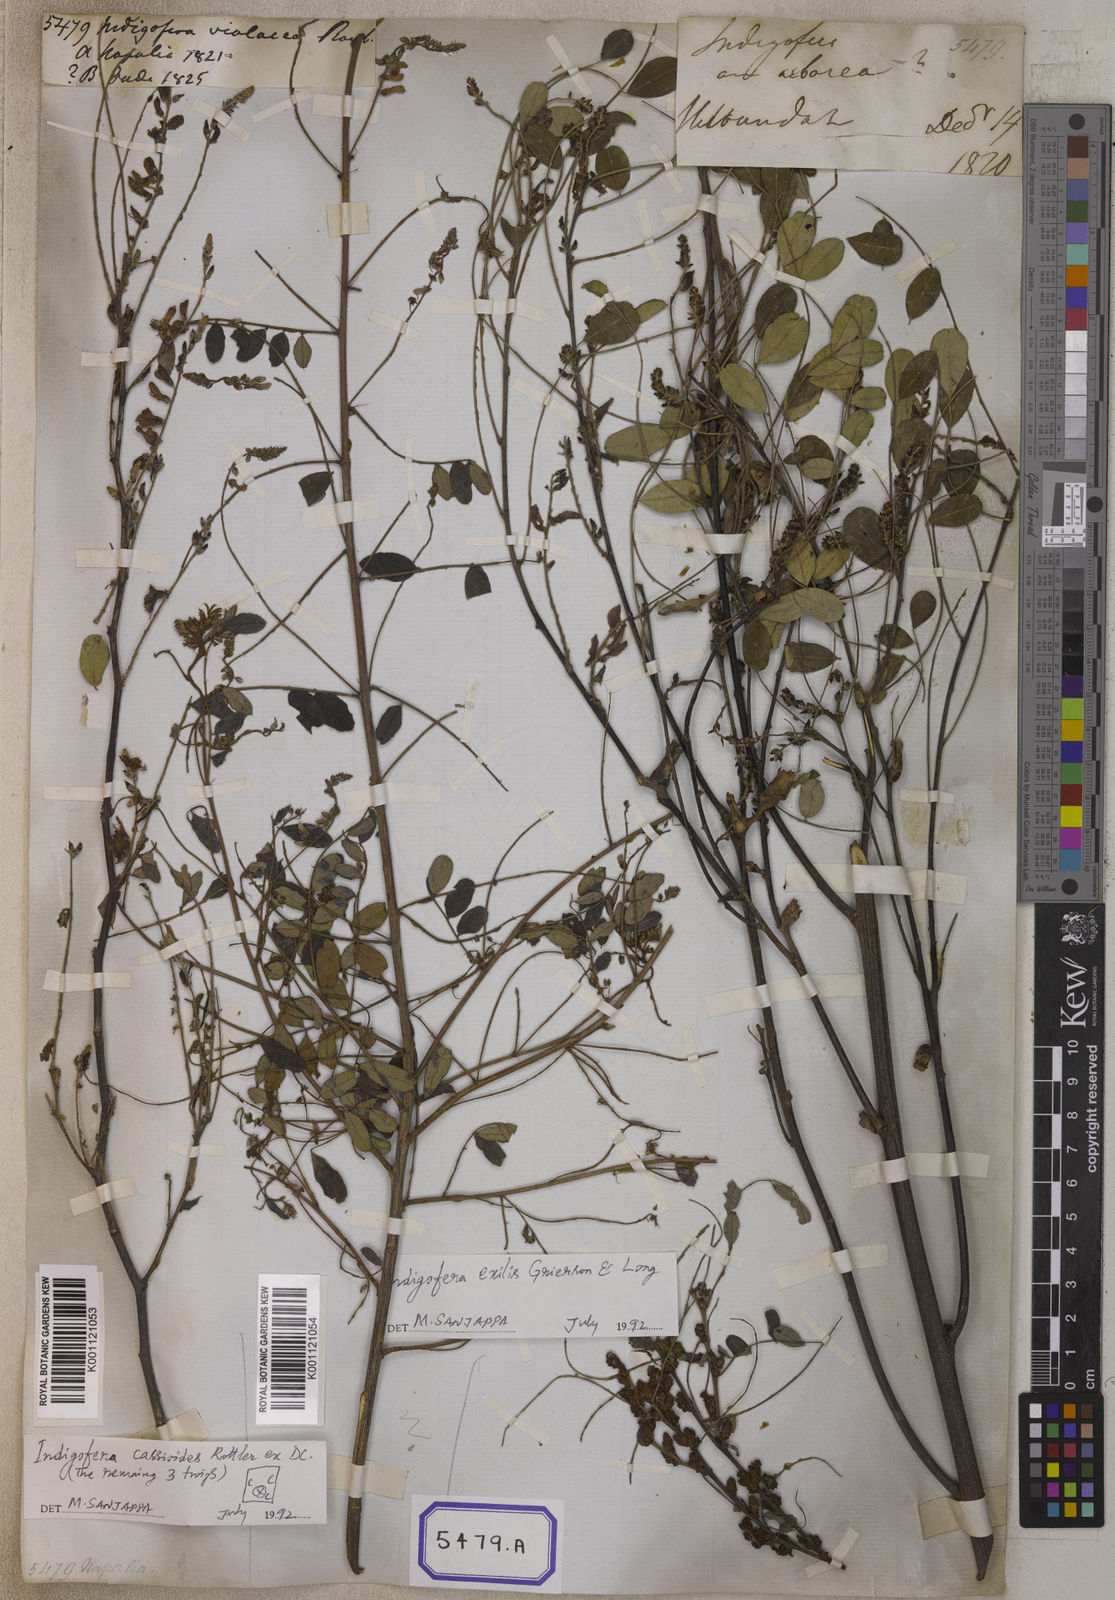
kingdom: Plantae
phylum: Tracheophyta
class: Magnoliopsida
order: Fabales
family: Fabaceae
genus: Indigofera
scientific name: Indigofera cassioides
